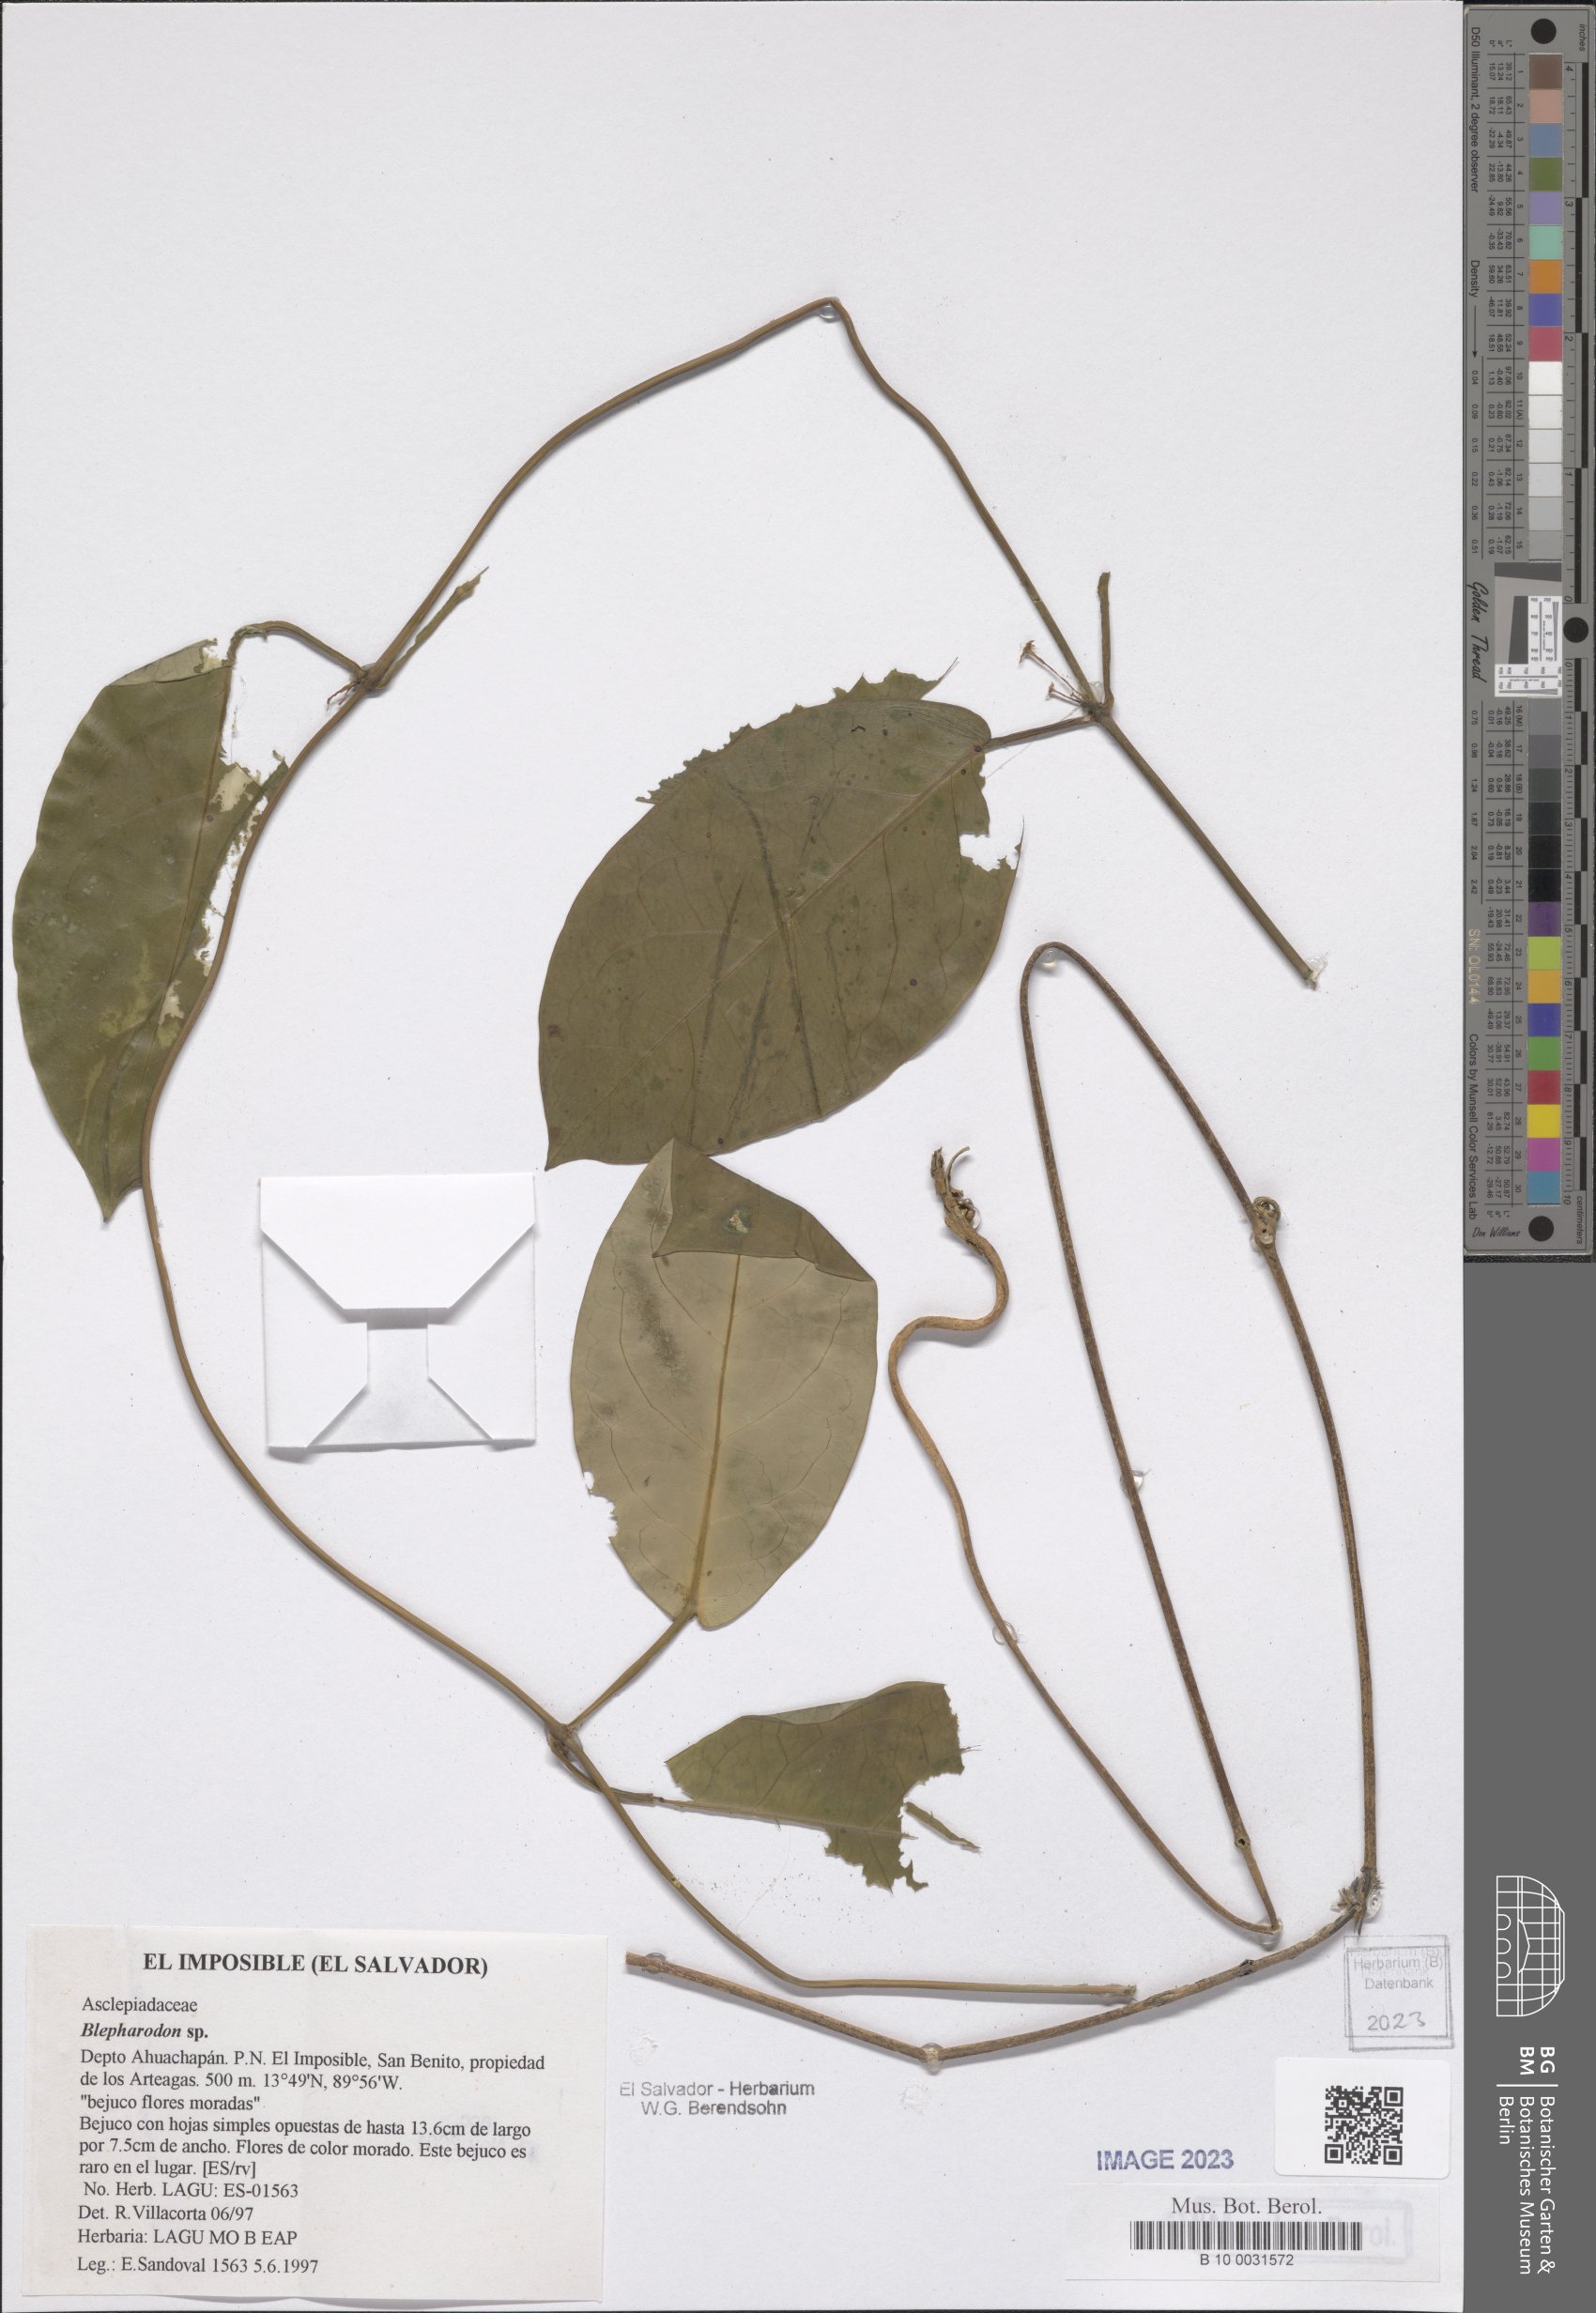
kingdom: Plantae
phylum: Tracheophyta
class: Magnoliopsida
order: Gentianales
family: Apocynaceae
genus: Blepharodon
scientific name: Blepharodon
